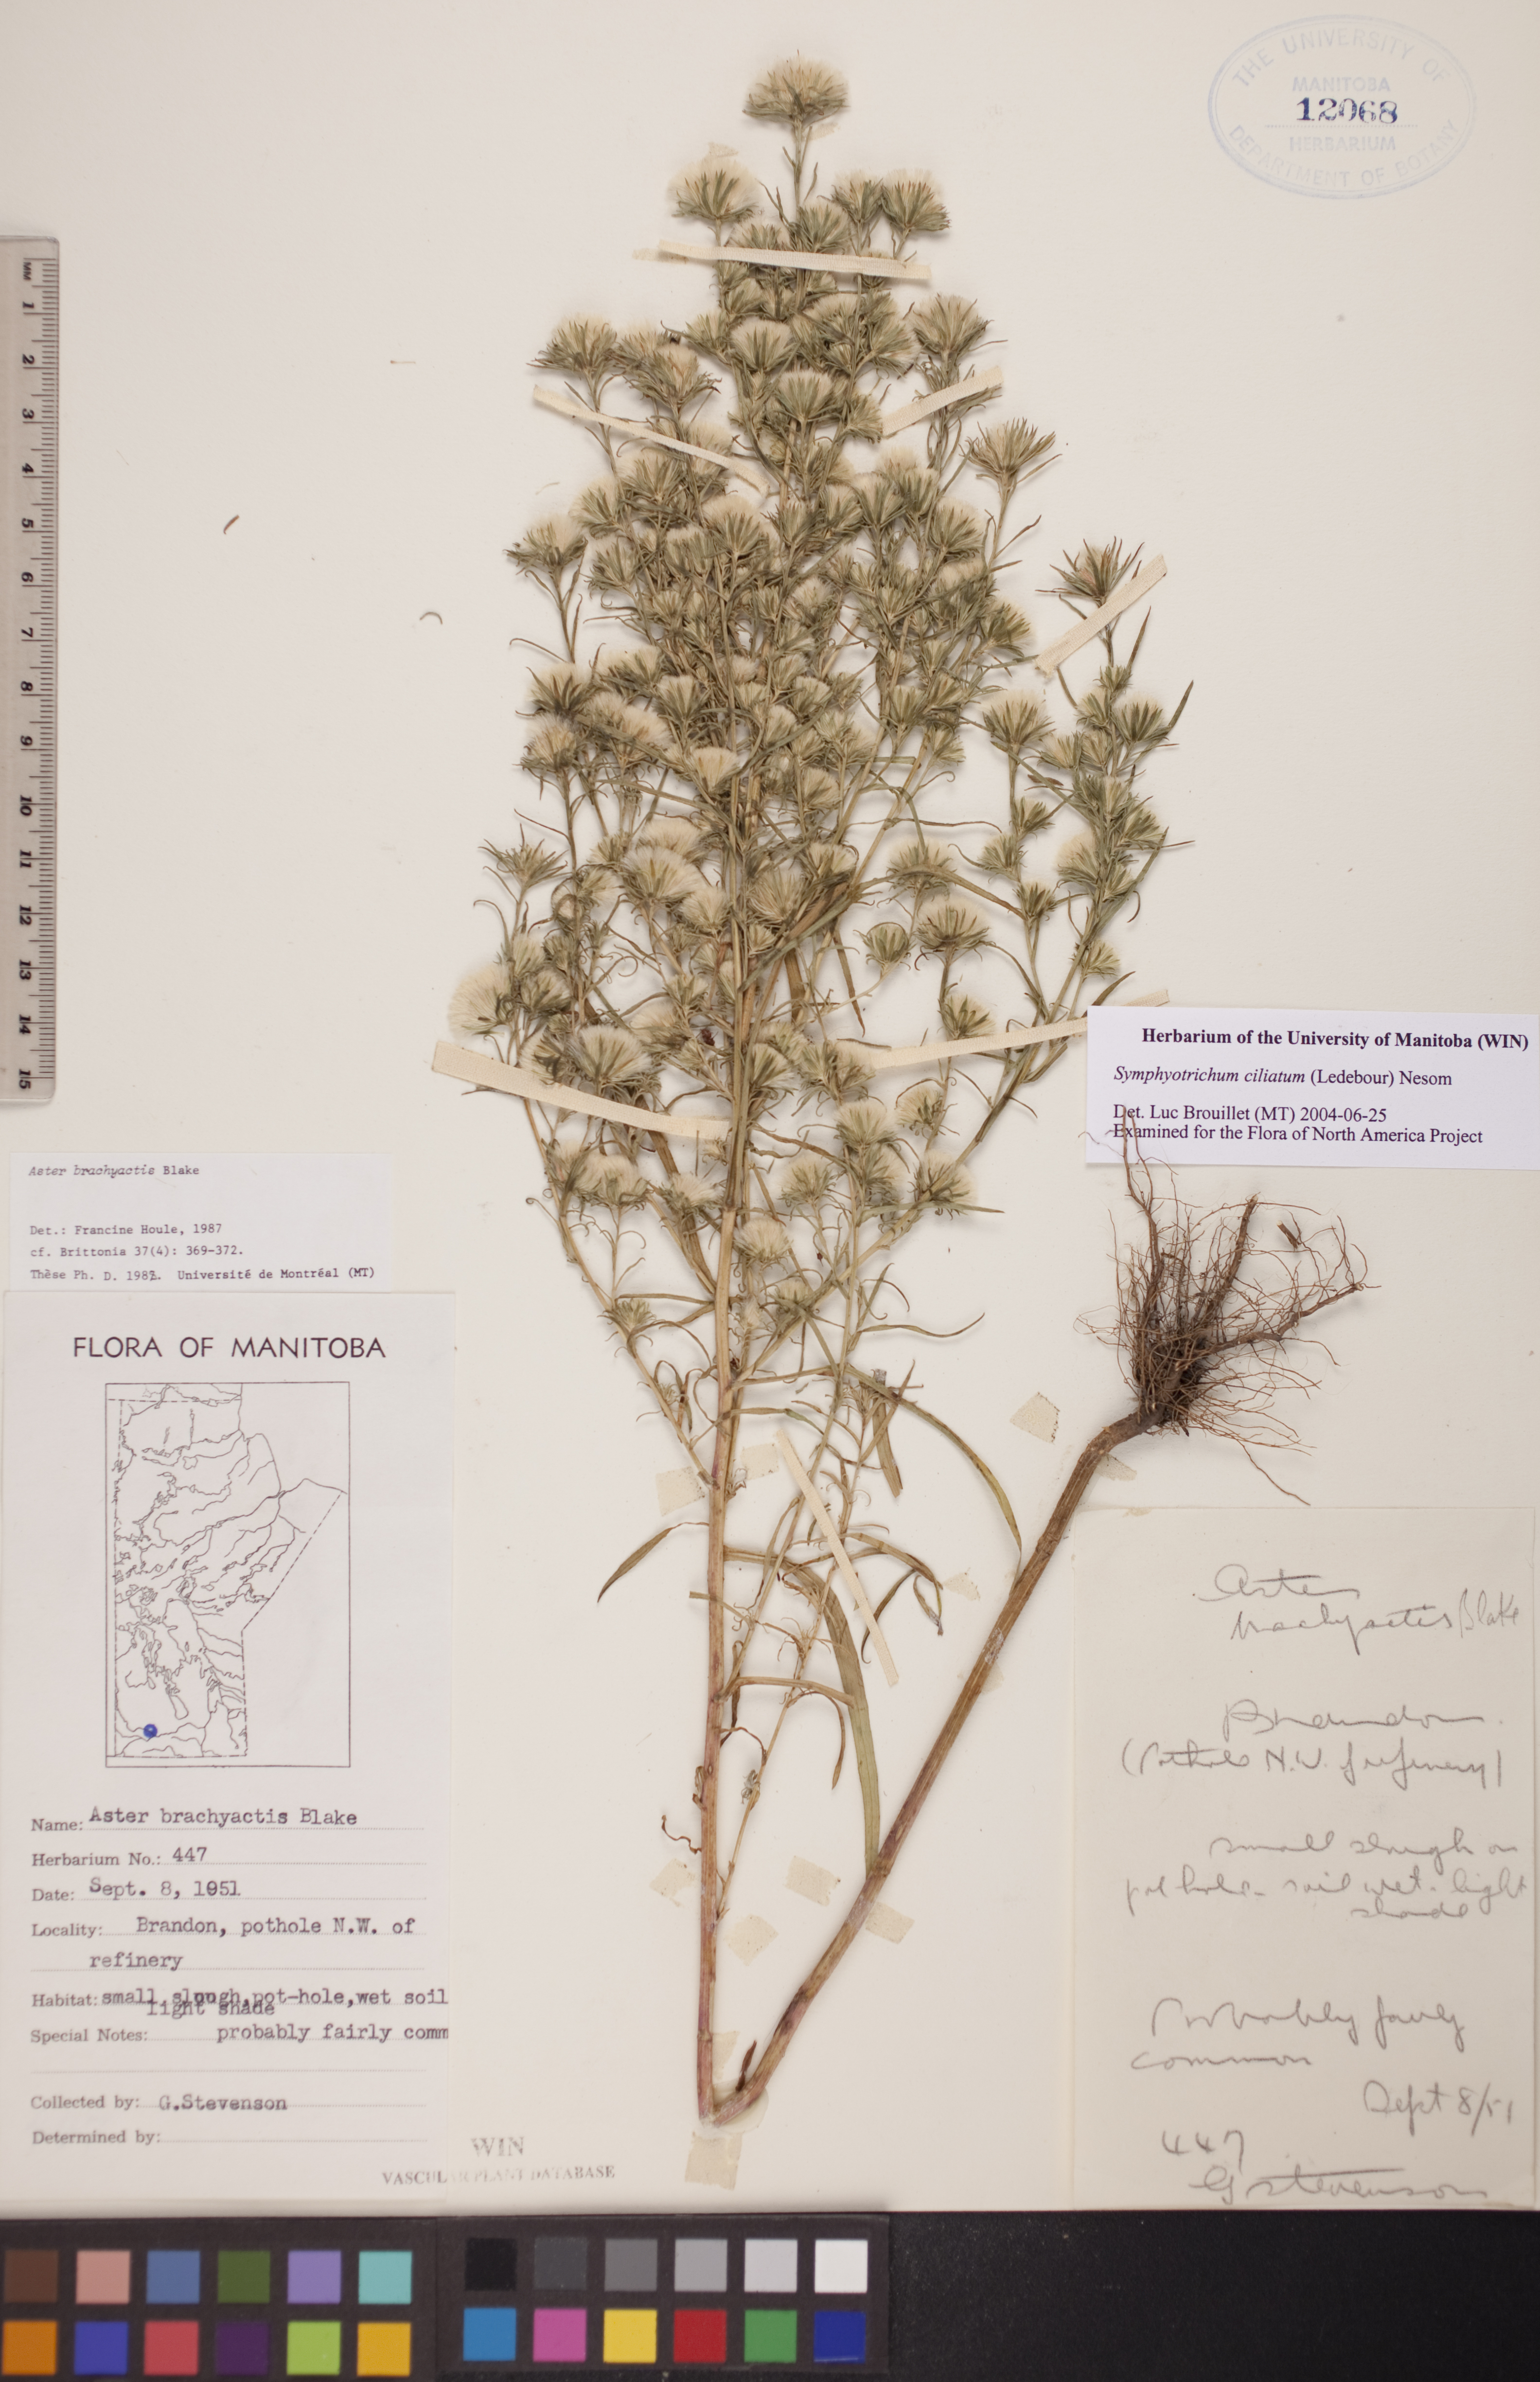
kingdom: Plantae
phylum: Tracheophyta
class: Magnoliopsida
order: Asterales
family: Asteraceae
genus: Symphyotrichum
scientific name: Symphyotrichum ciliatum
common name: Rayless annual aster
